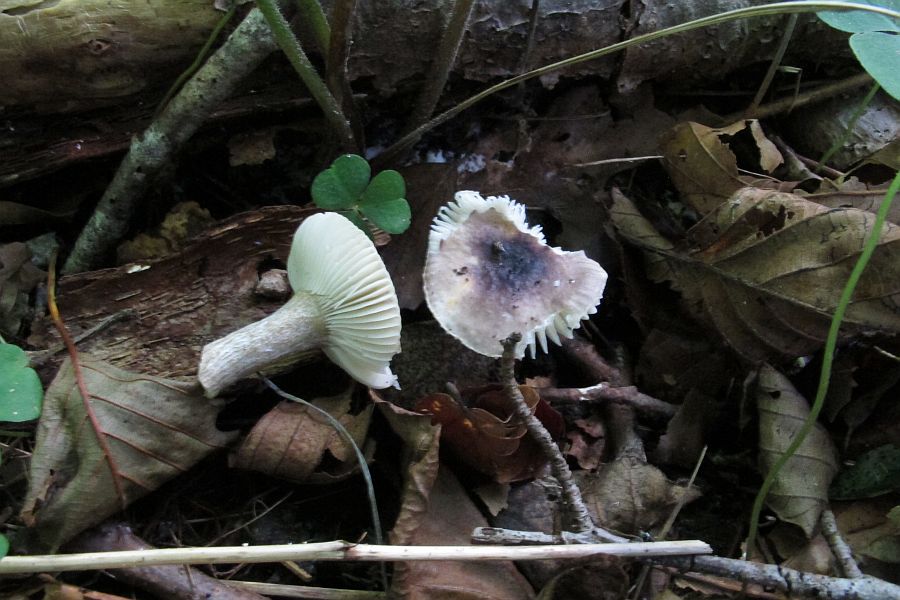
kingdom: Fungi
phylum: Basidiomycota
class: Agaricomycetes
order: Russulales
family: Russulaceae
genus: Russula
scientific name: Russula alnetorum
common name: elle-skørhat
